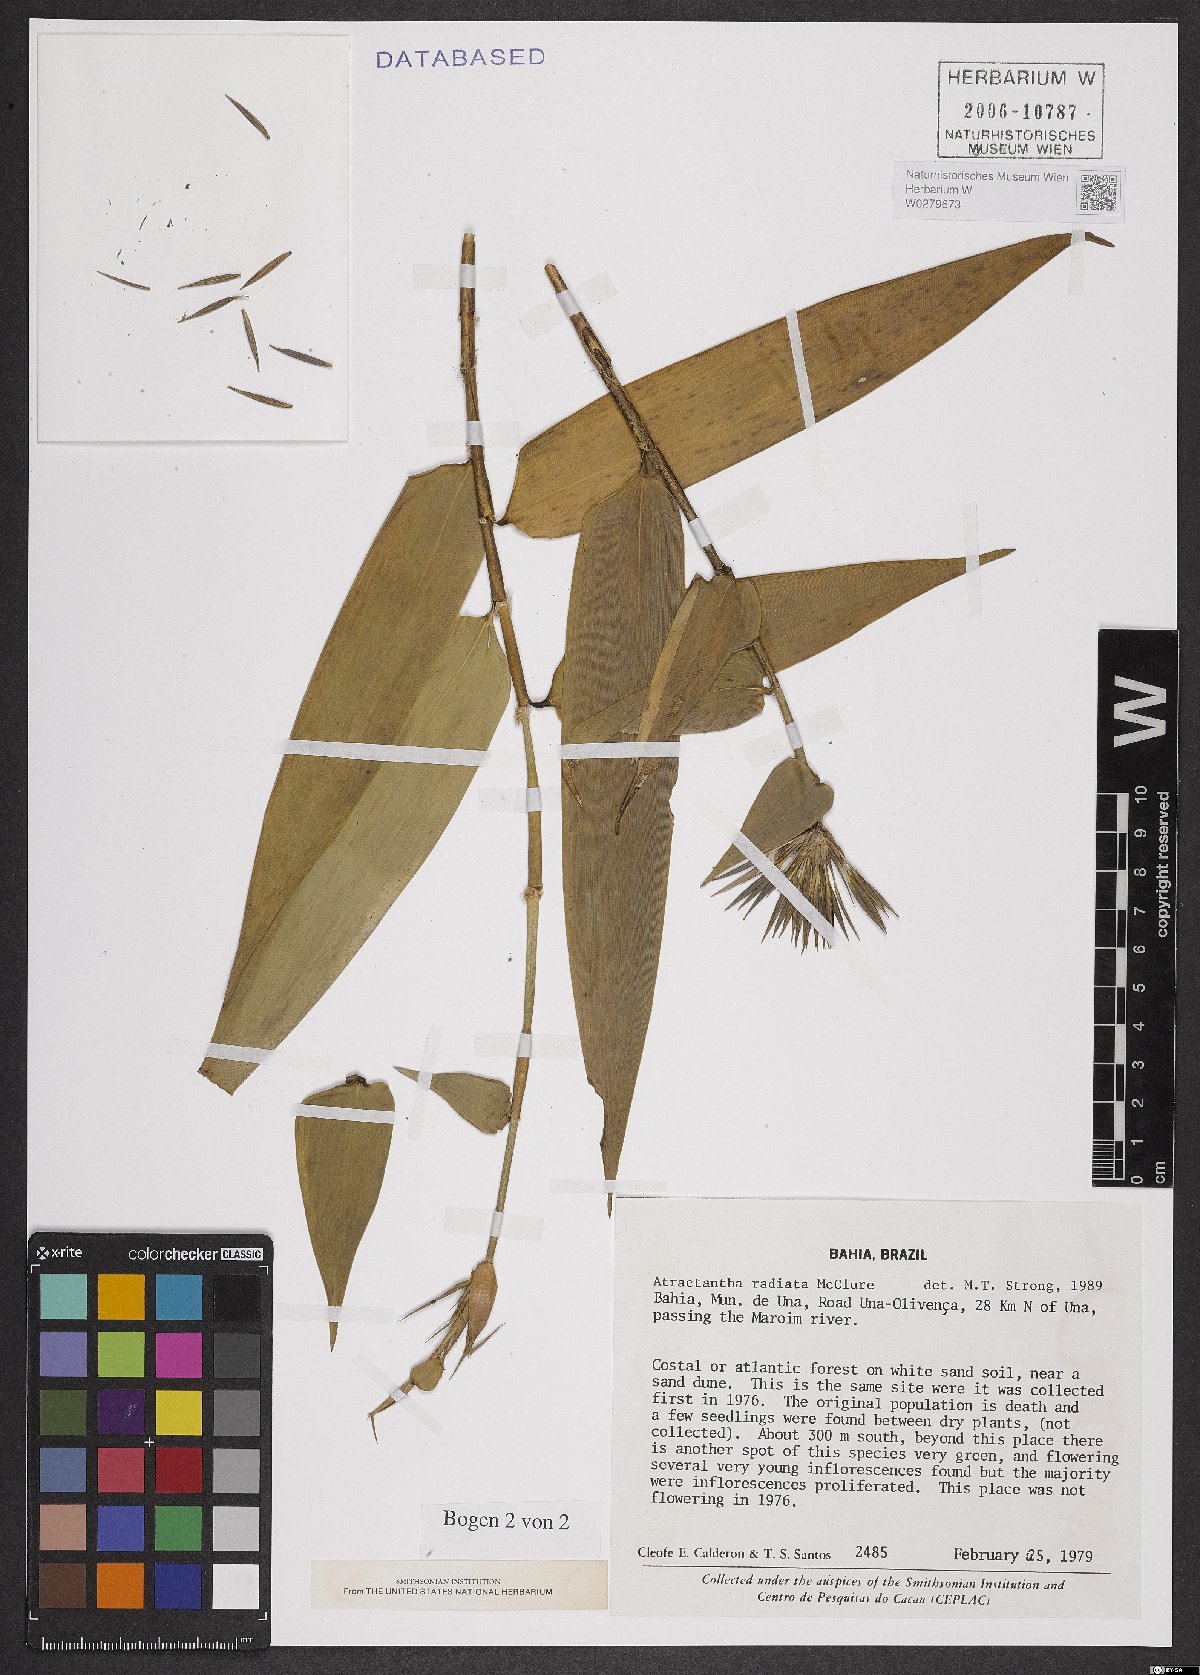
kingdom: Plantae
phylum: Tracheophyta
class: Liliopsida
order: Poales
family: Poaceae
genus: Atractantha
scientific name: Atractantha radiata
